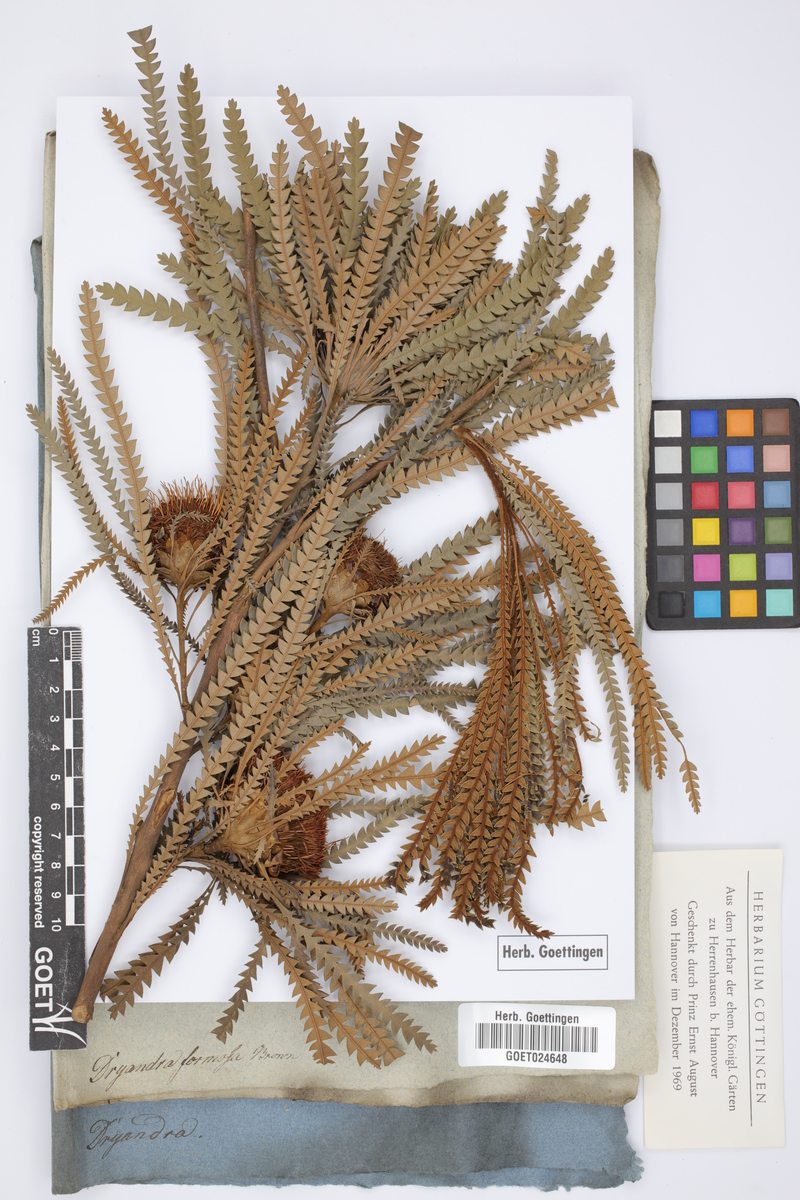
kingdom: Plantae
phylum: Tracheophyta
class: Magnoliopsida
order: Proteales
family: Proteaceae
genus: Banksia
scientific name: Banksia formosa
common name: Showy dryandra
